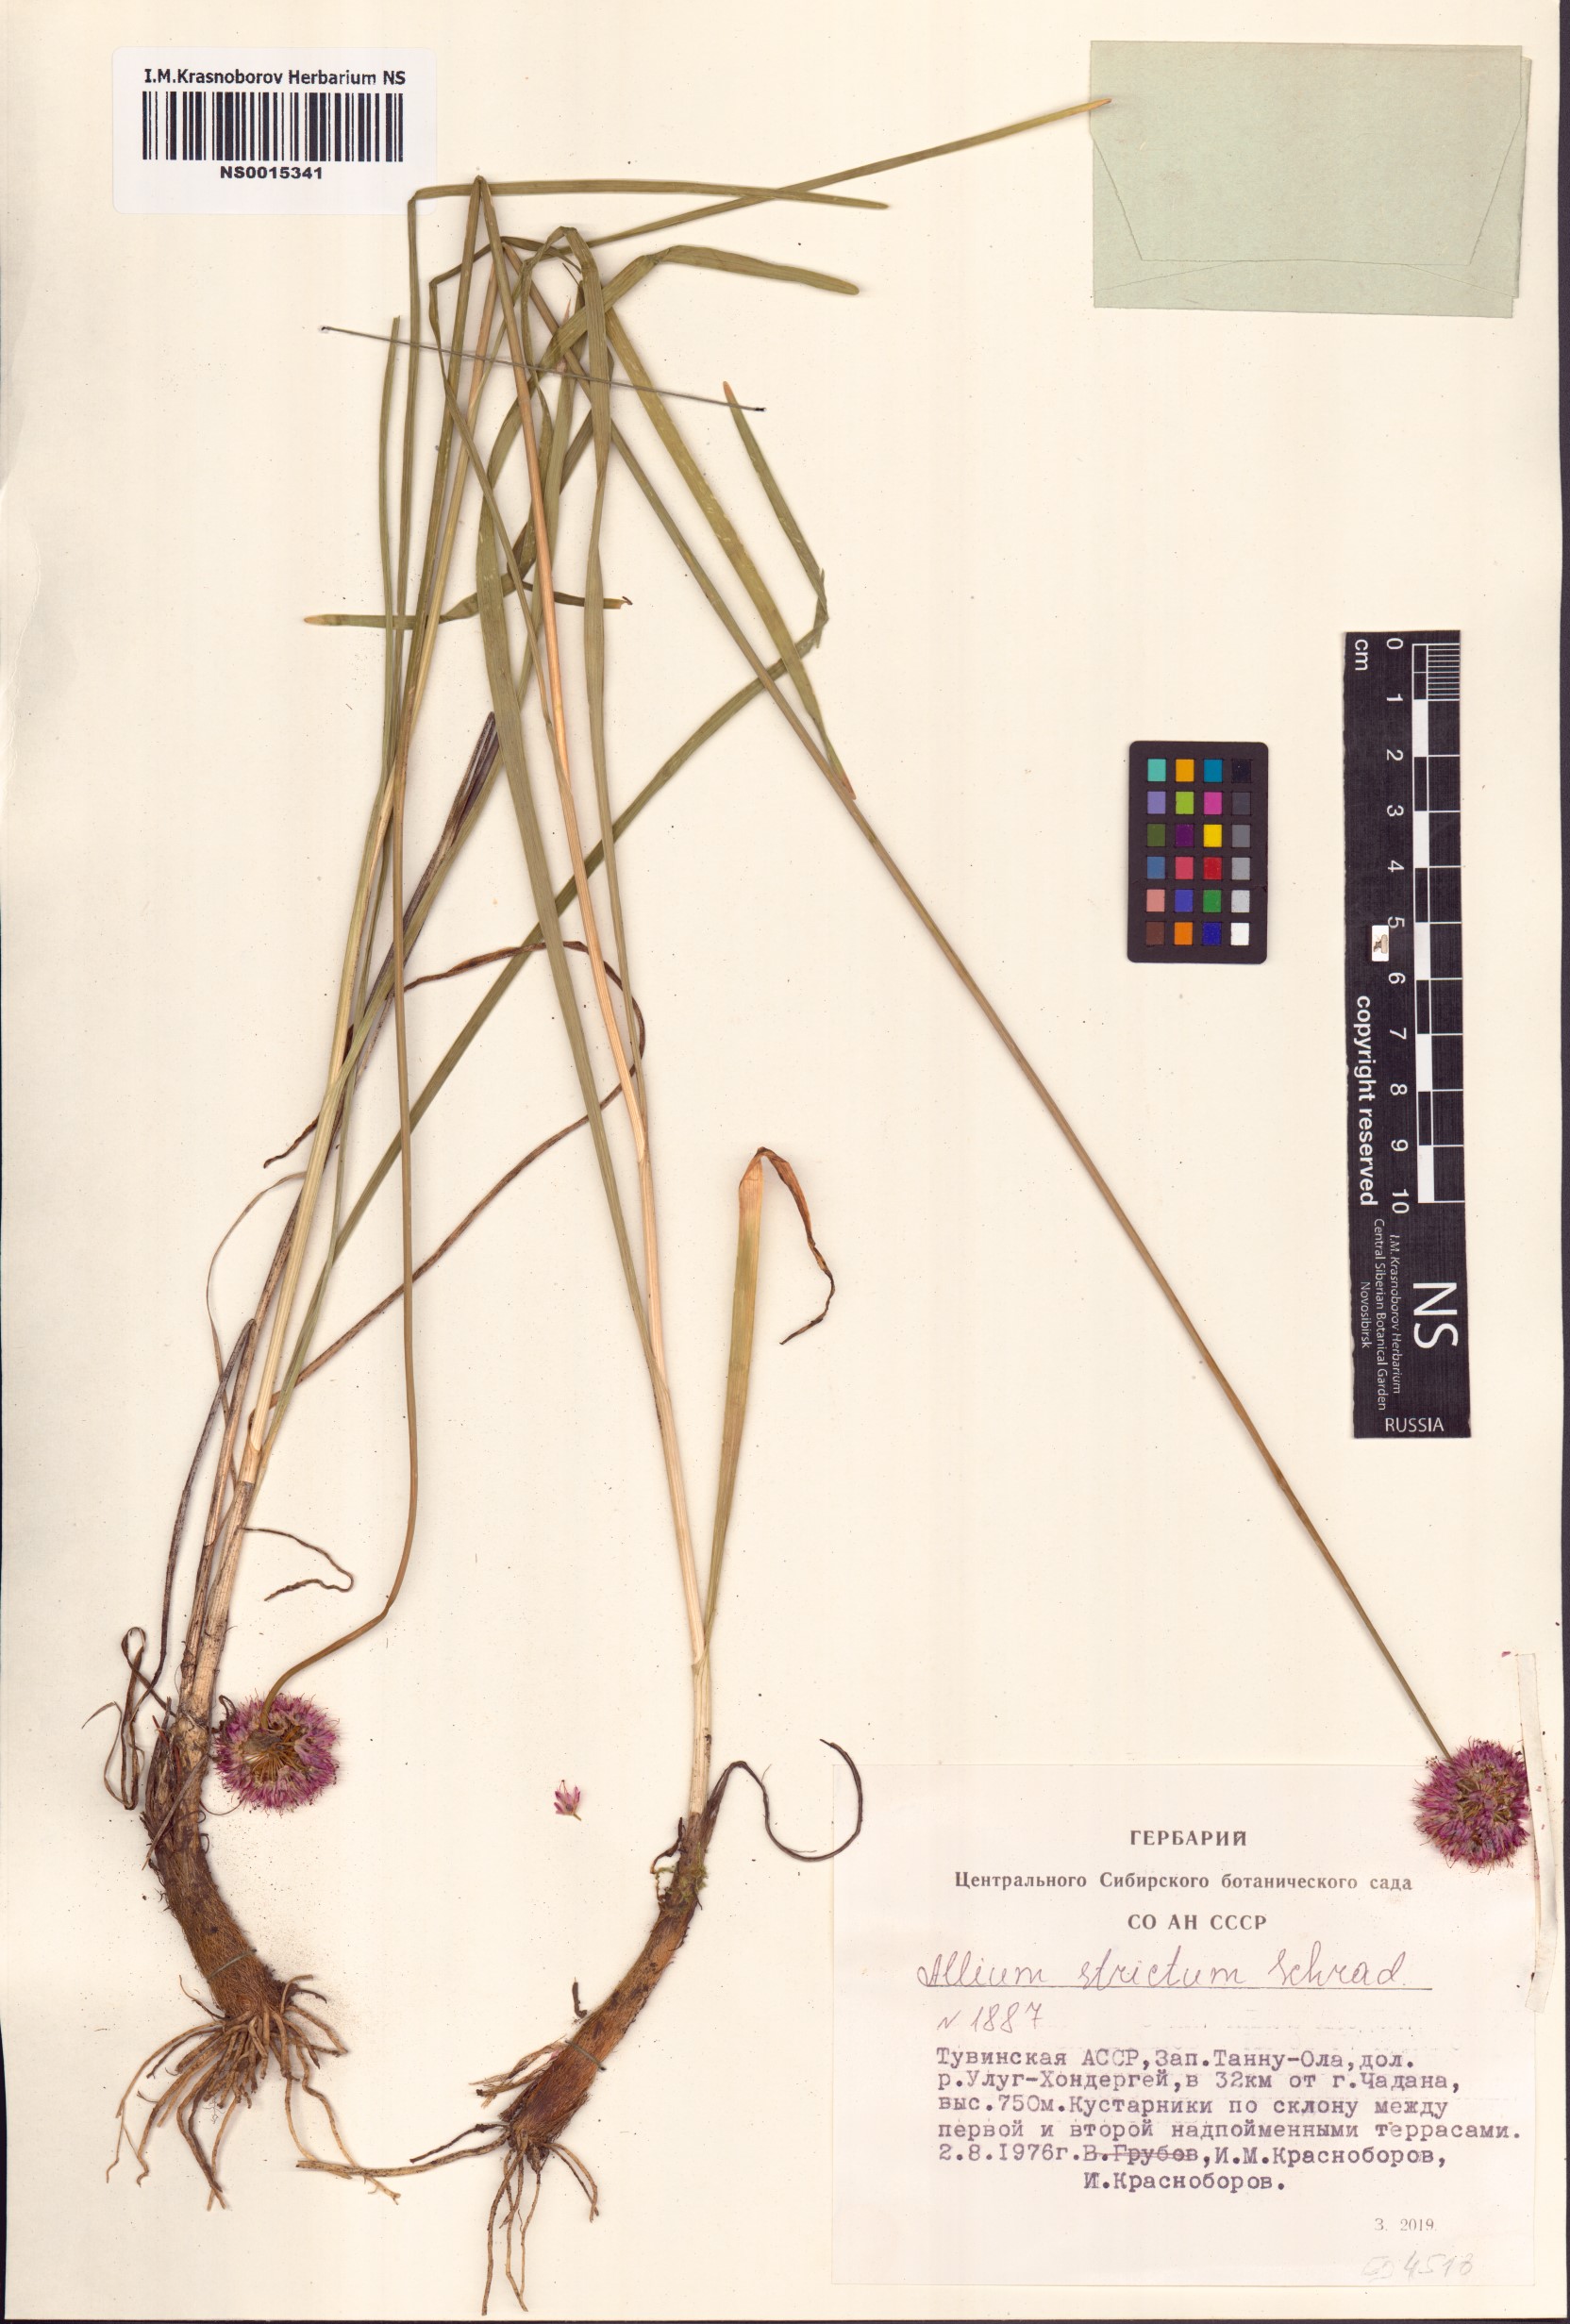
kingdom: Plantae
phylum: Tracheophyta
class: Liliopsida
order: Asparagales
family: Amaryllidaceae
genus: Allium
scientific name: Allium strictum
